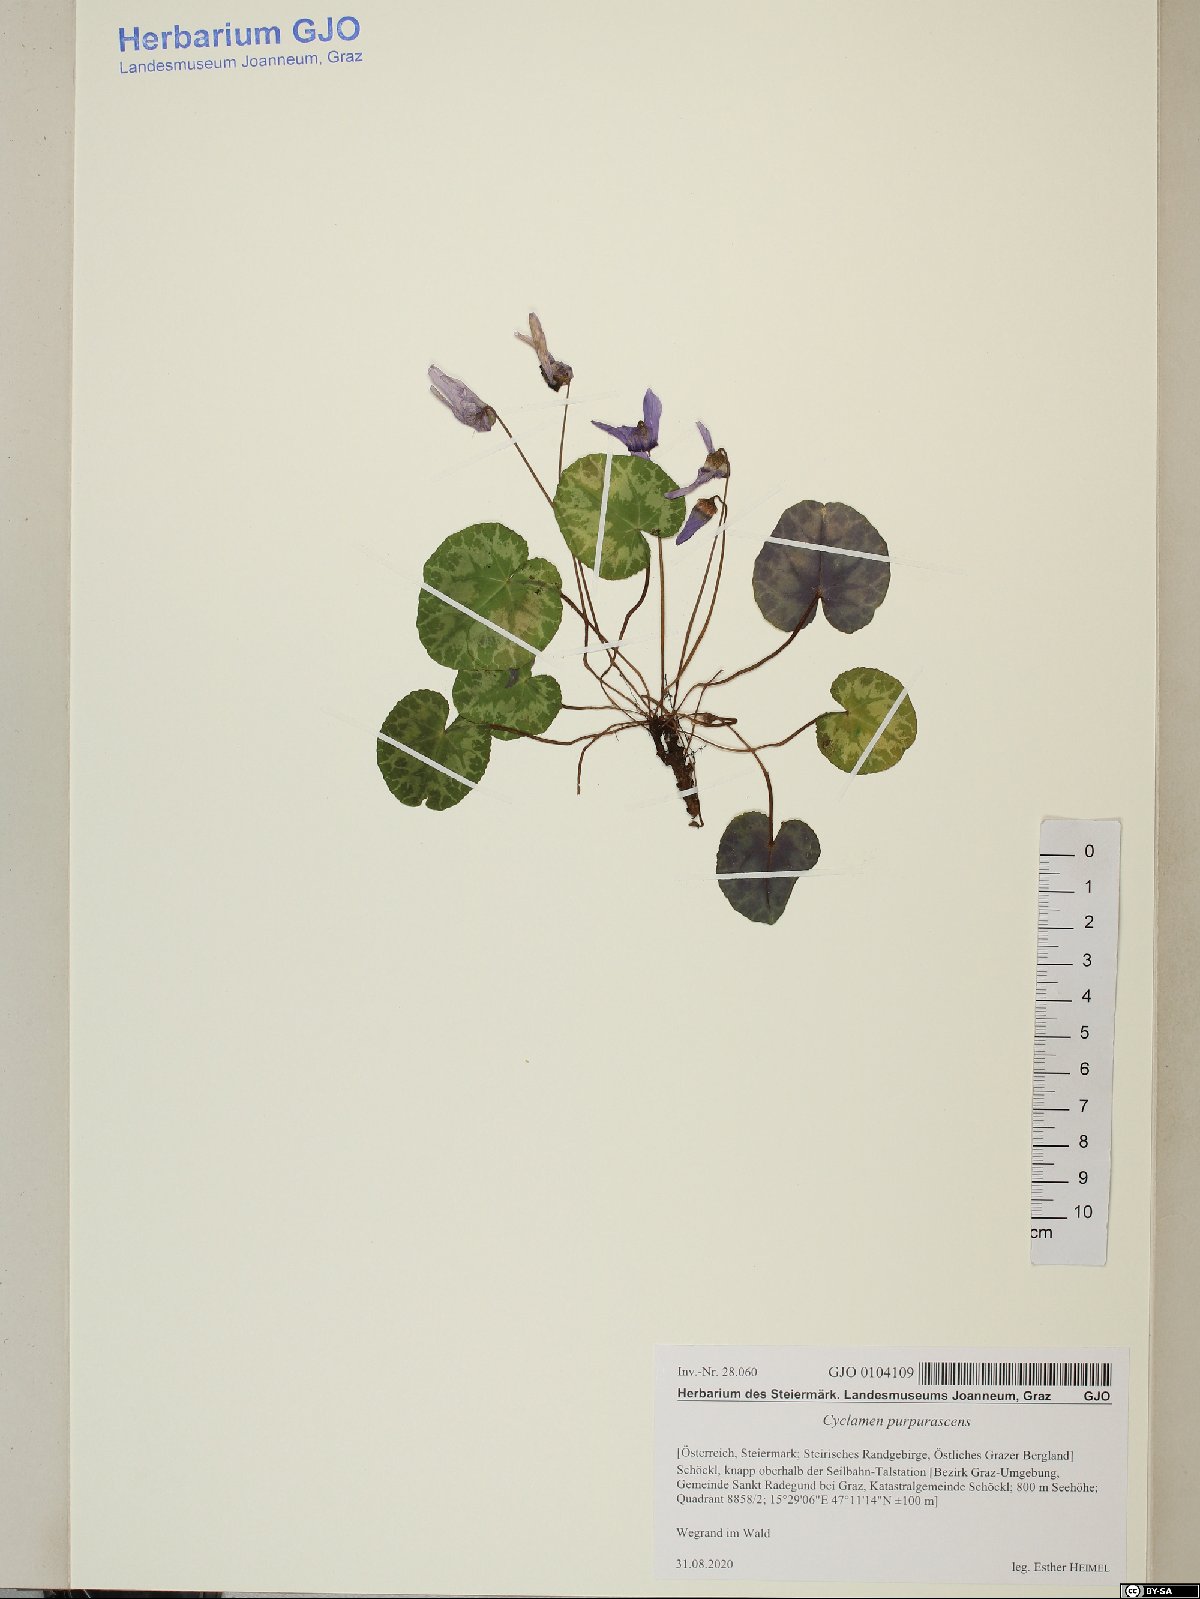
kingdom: Plantae
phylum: Tracheophyta
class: Magnoliopsida
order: Ericales
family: Primulaceae
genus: Cyclamen
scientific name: Cyclamen purpurascens
